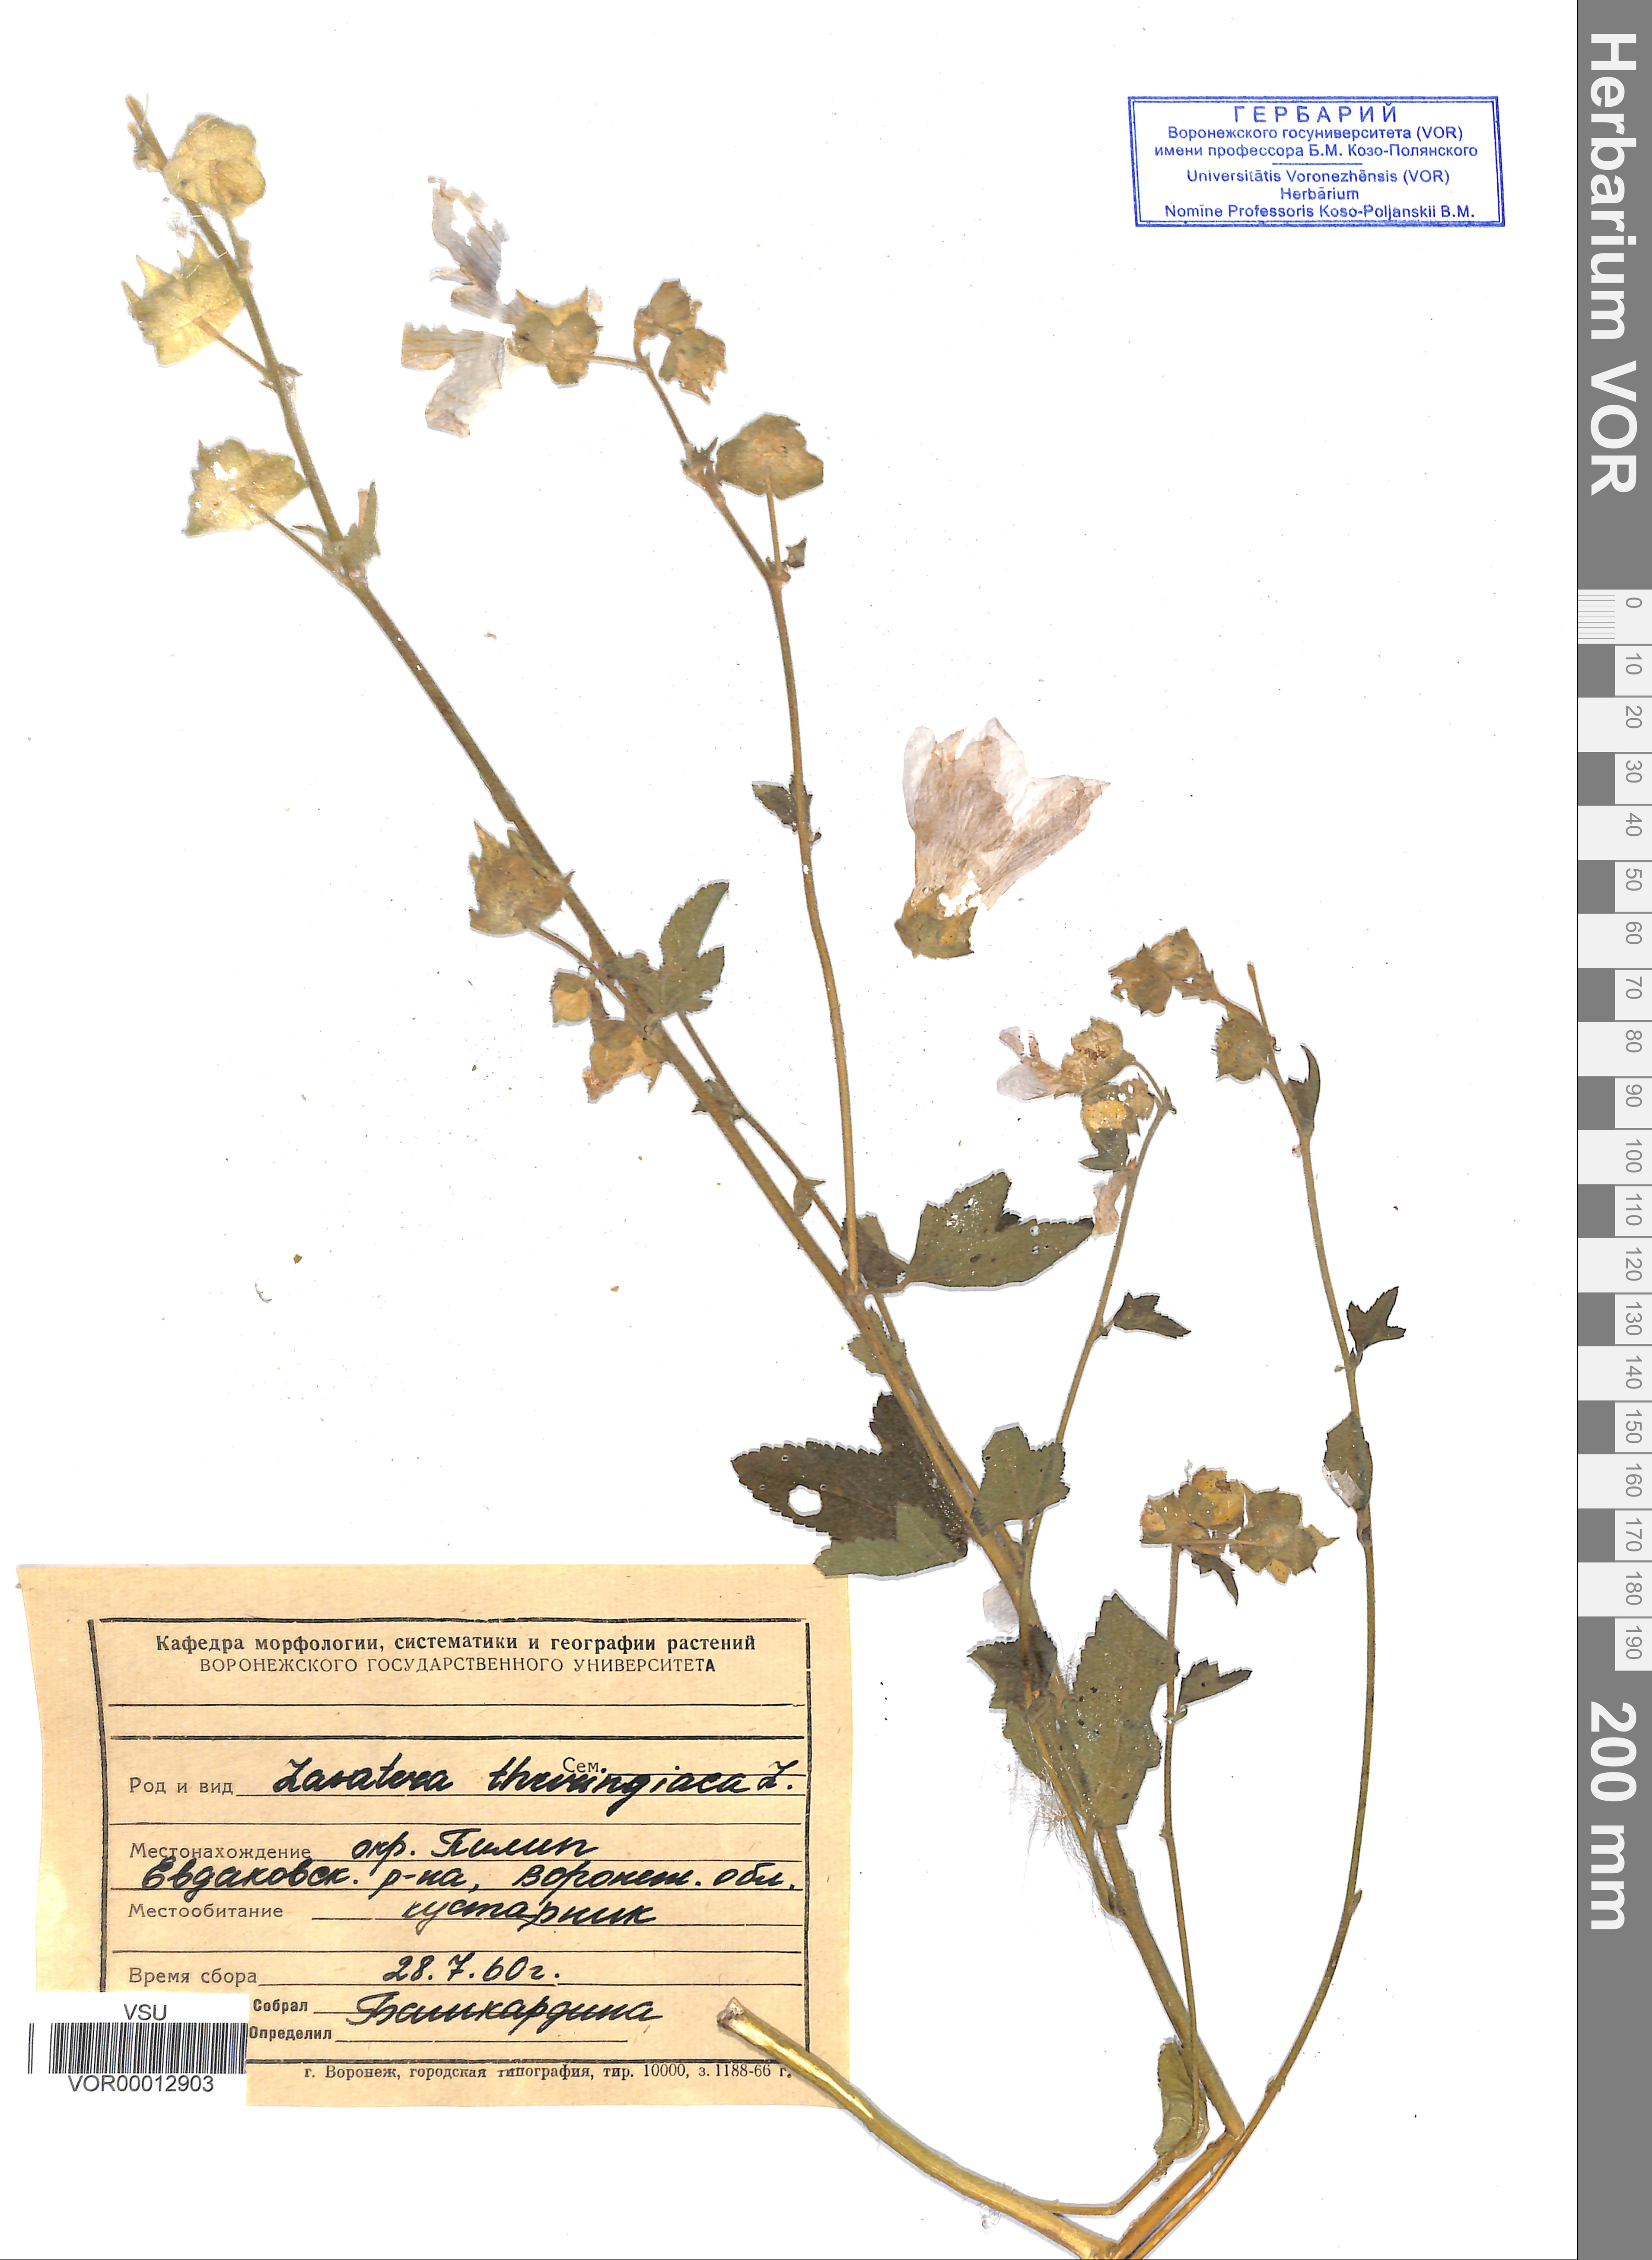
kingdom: Plantae
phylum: Tracheophyta
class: Magnoliopsida
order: Malvales
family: Malvaceae
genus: Malva
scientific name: Malva thuringiaca
